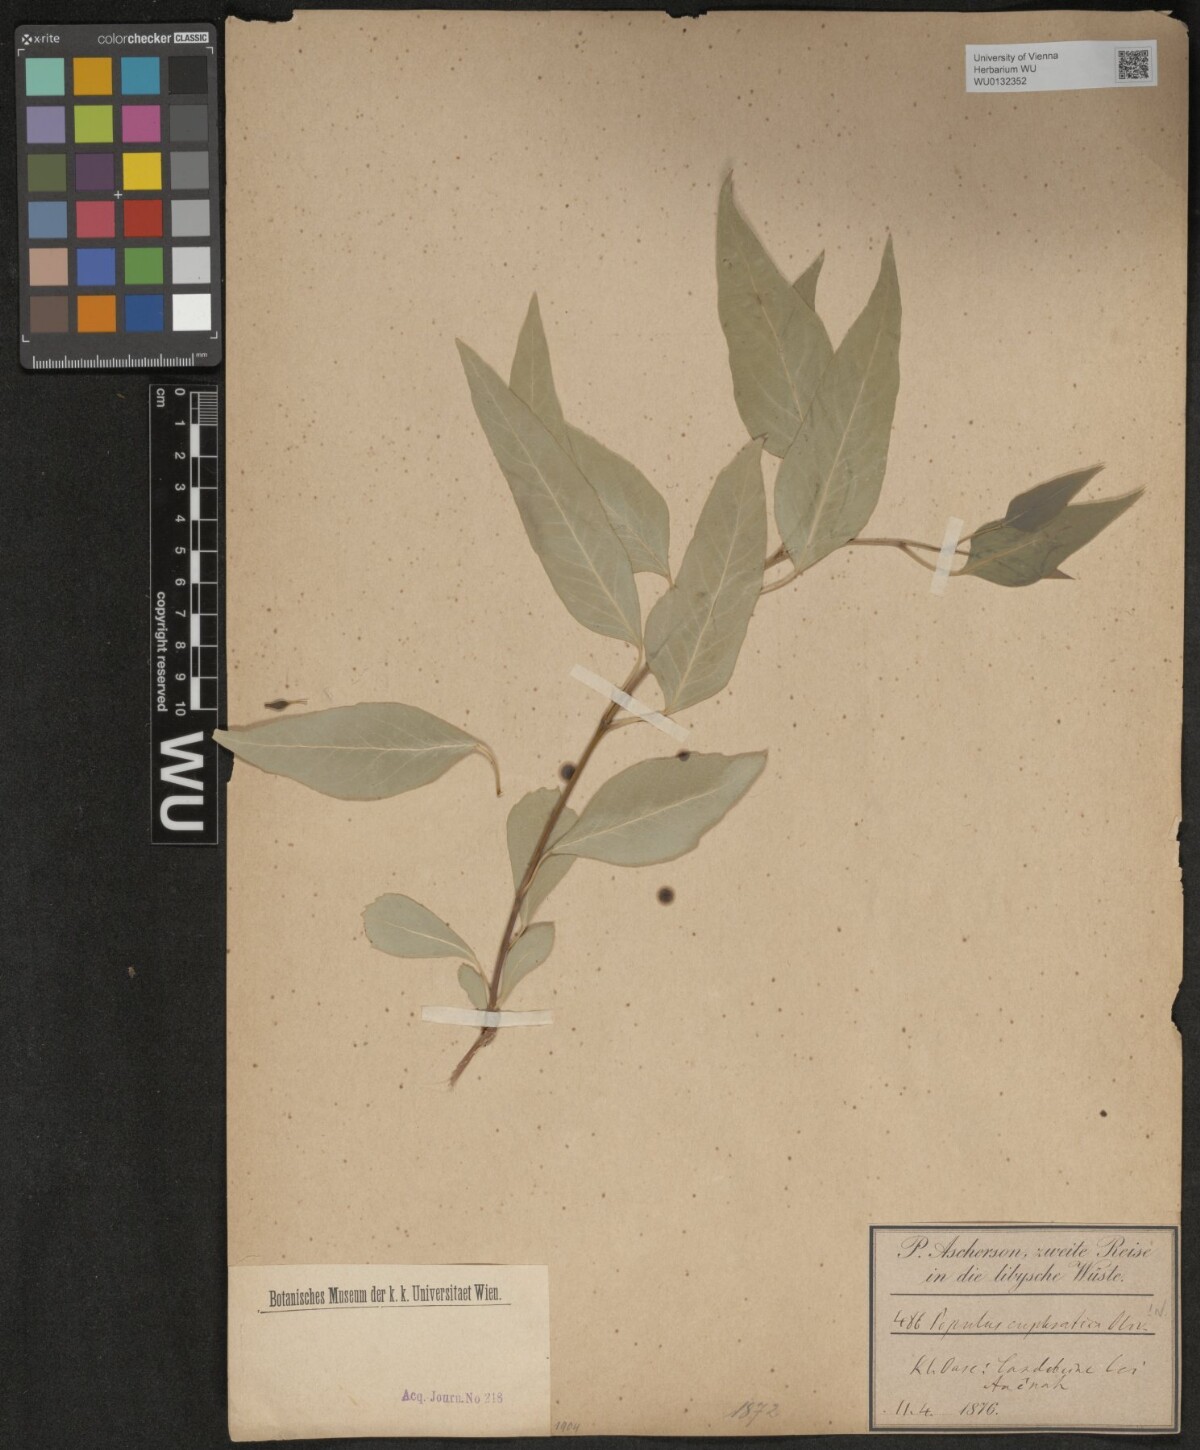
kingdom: Plantae
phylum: Tracheophyta
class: Magnoliopsida
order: Malpighiales
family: Salicaceae
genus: Populus
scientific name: Populus euphratica
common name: Euphrates poplar
